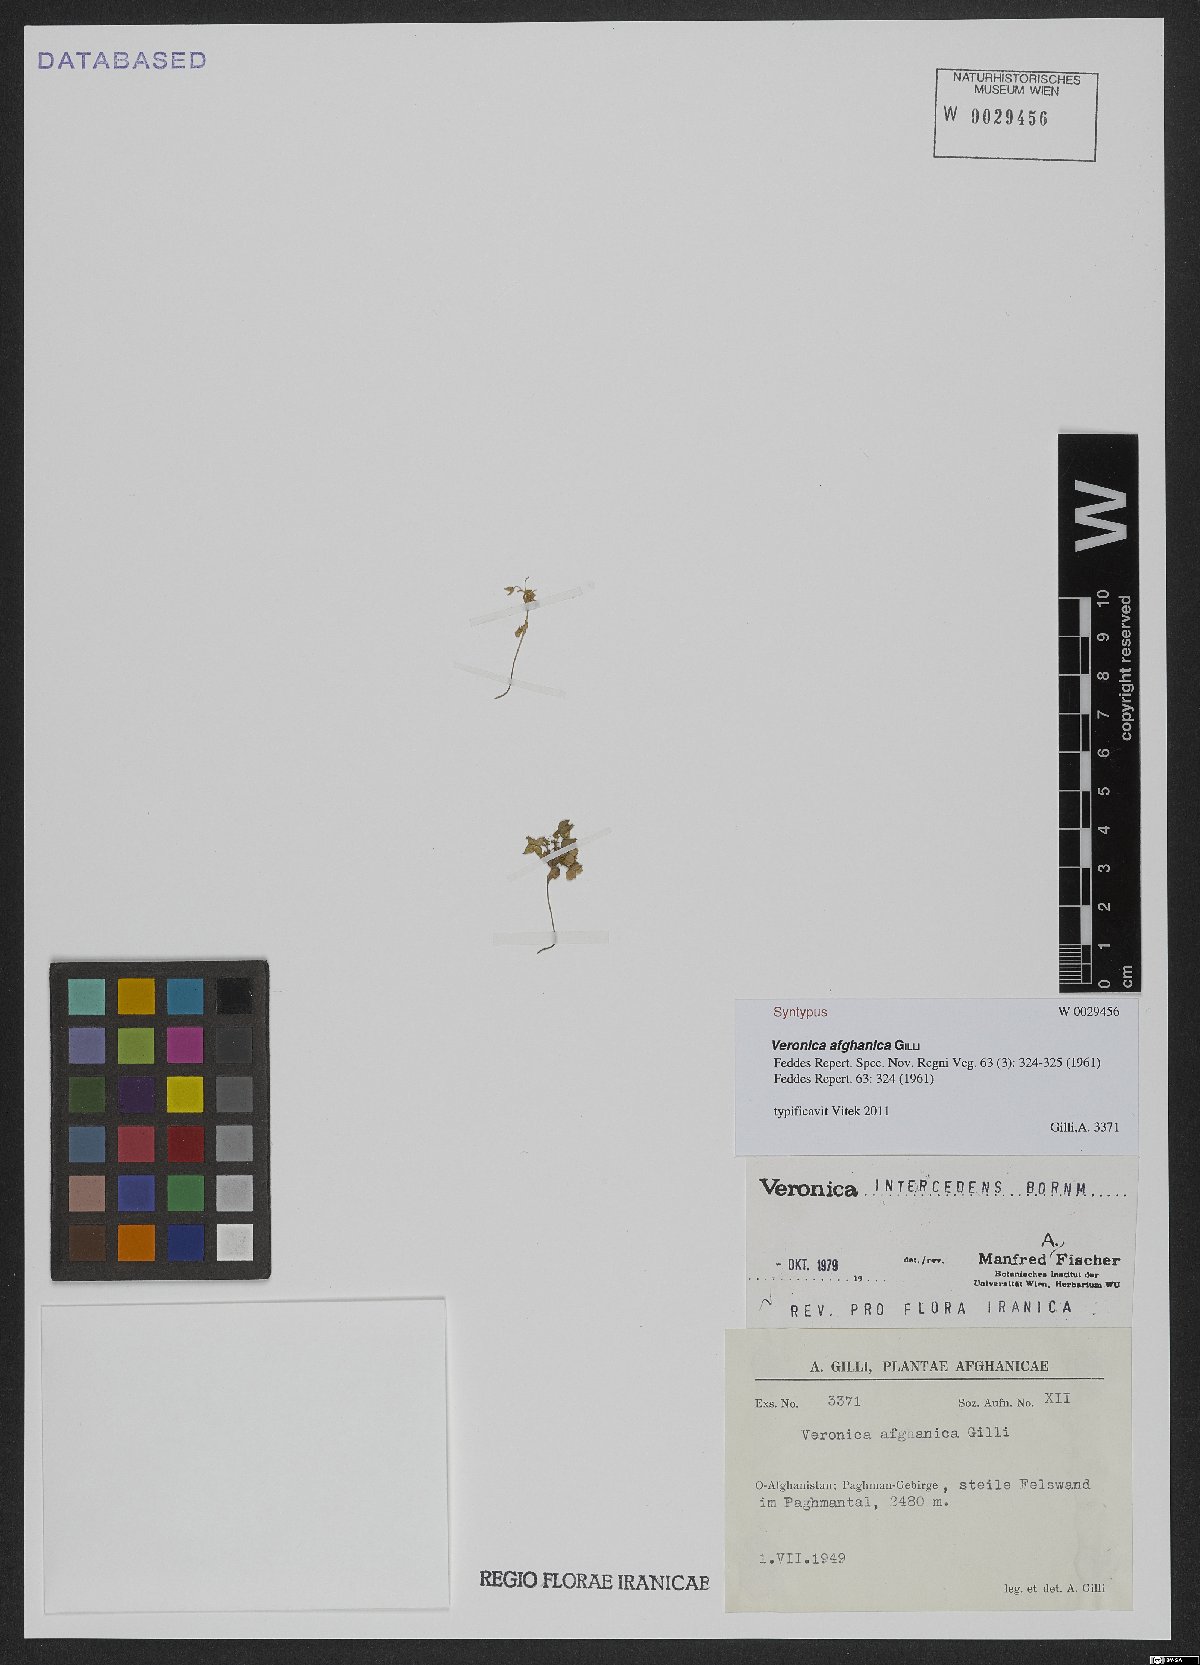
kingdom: Plantae
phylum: Tracheophyta
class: Magnoliopsida
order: Lamiales
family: Plantaginaceae
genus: Veronica
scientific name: Veronica intercedens
